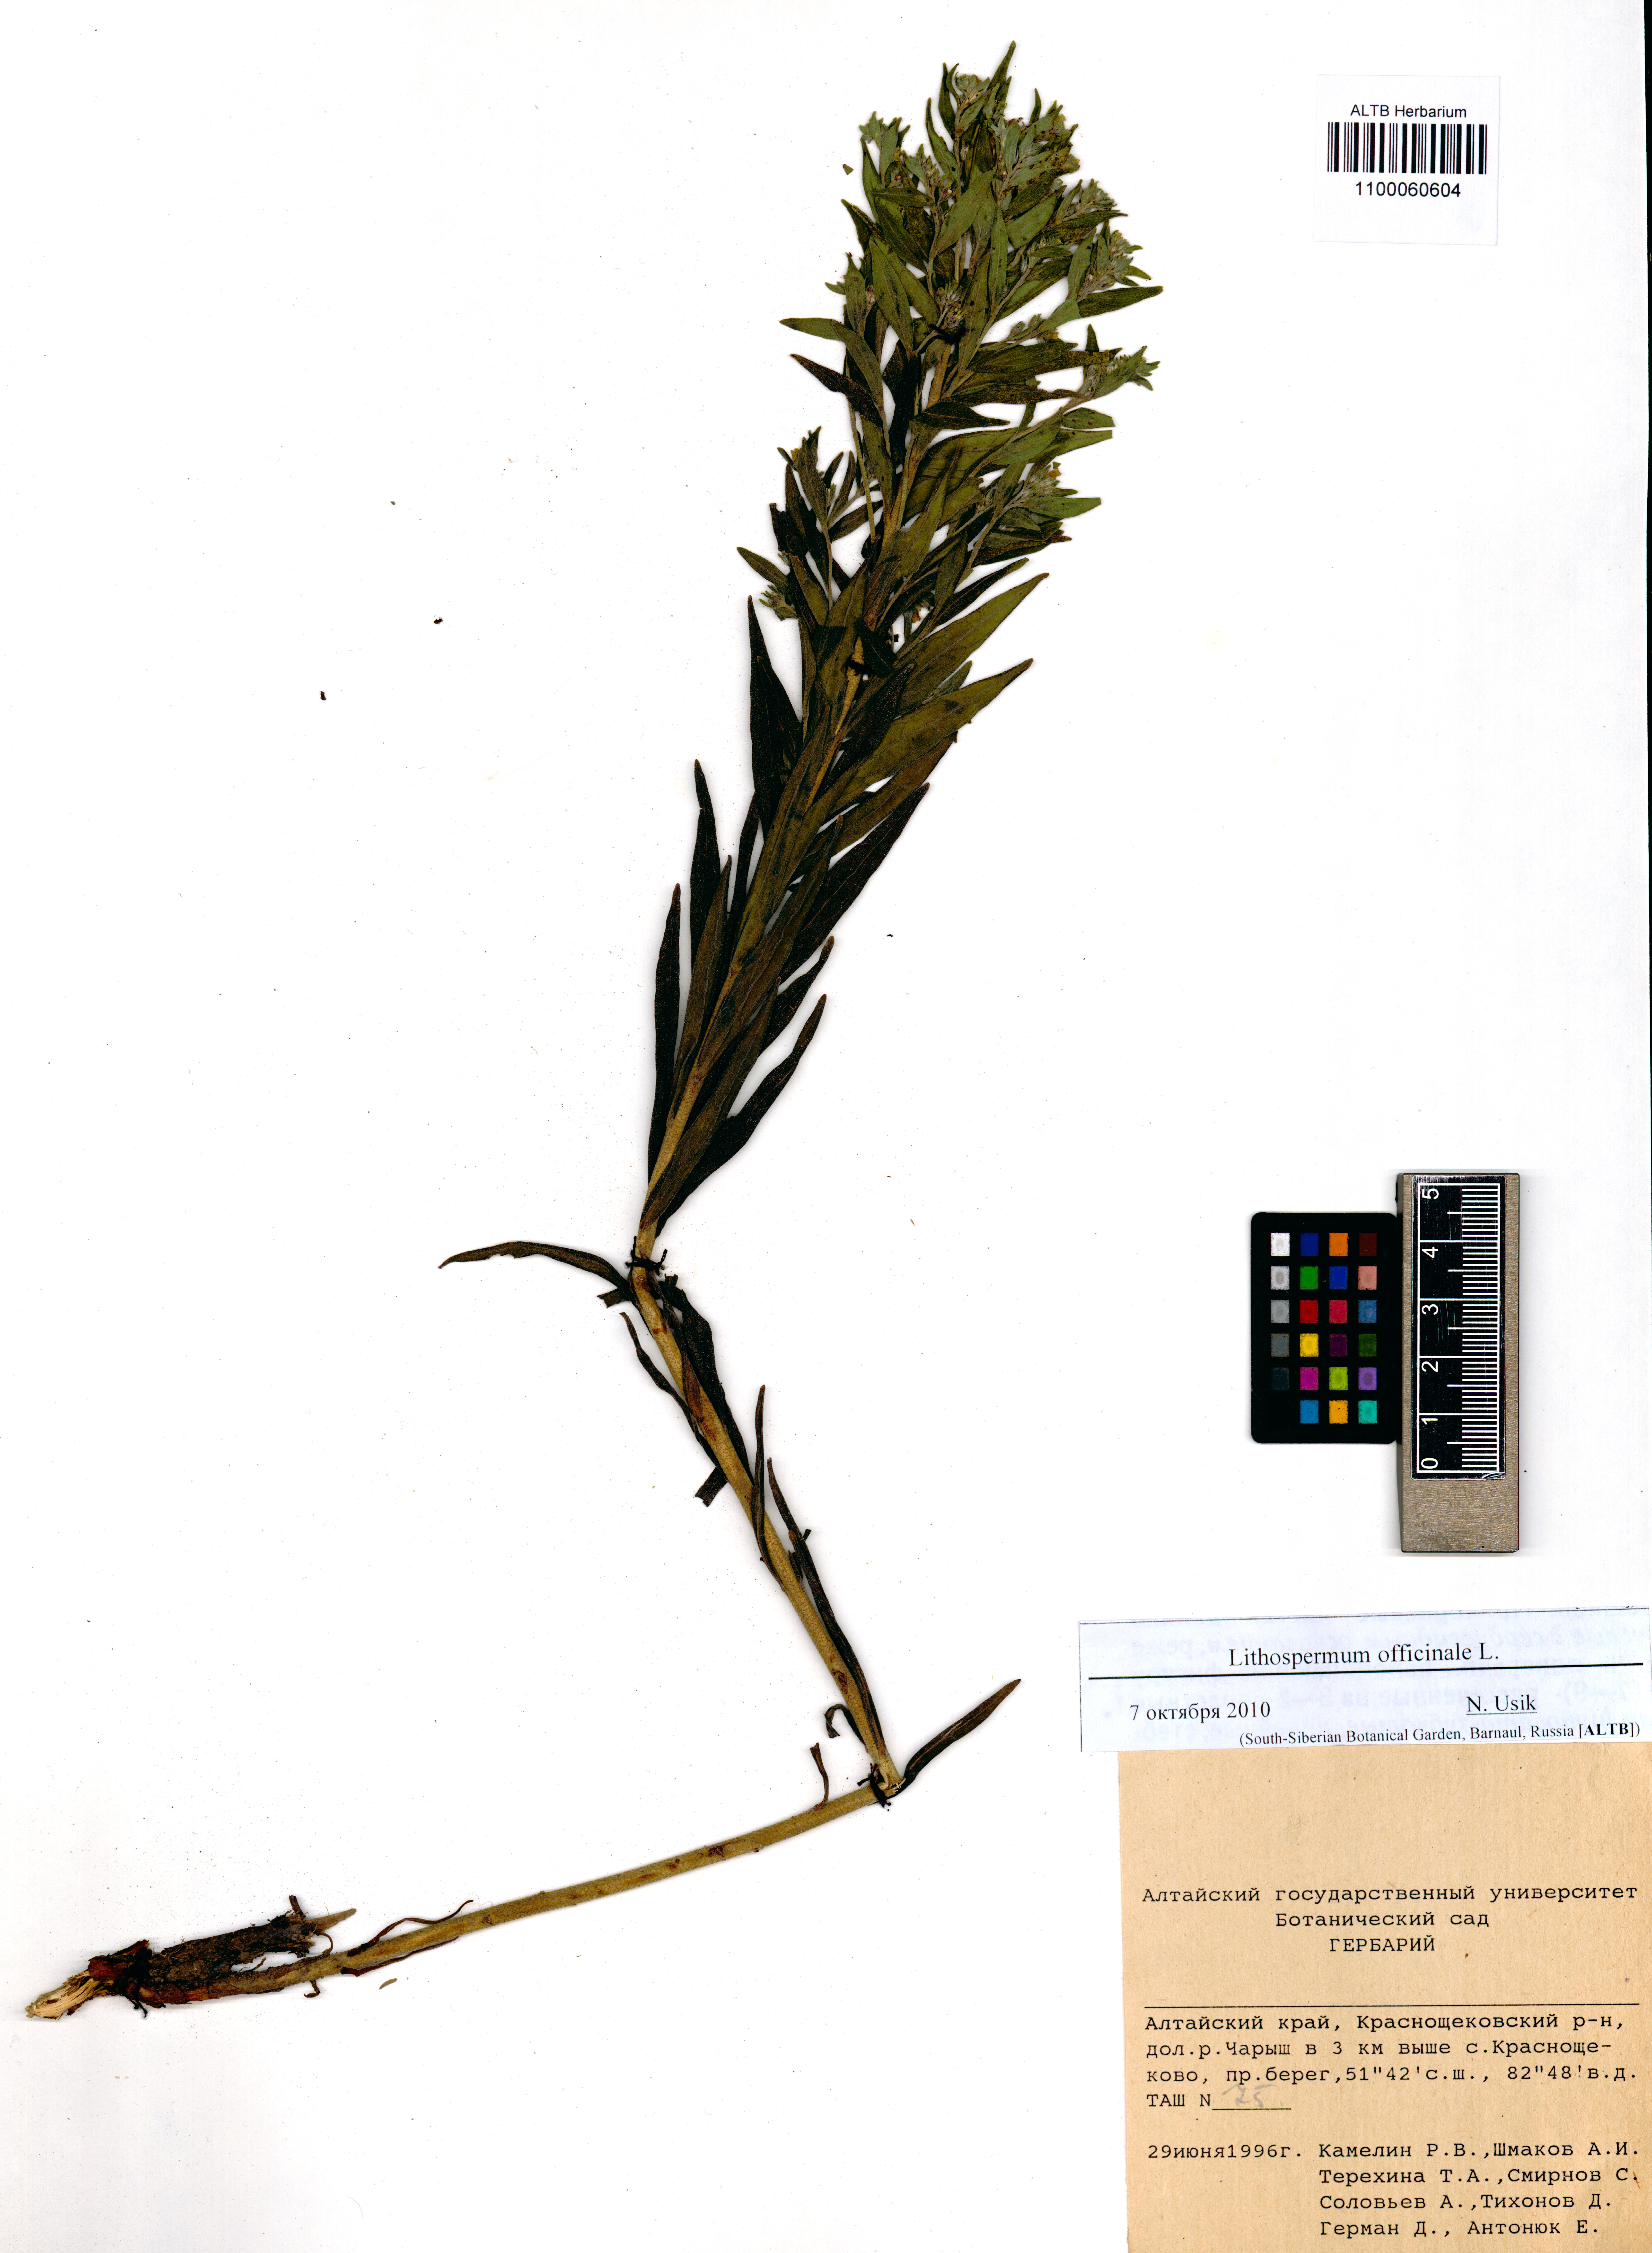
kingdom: Plantae
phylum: Tracheophyta
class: Magnoliopsida
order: Boraginales
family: Boraginaceae
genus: Lithospermum
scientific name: Lithospermum officinale
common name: Common gromwell
